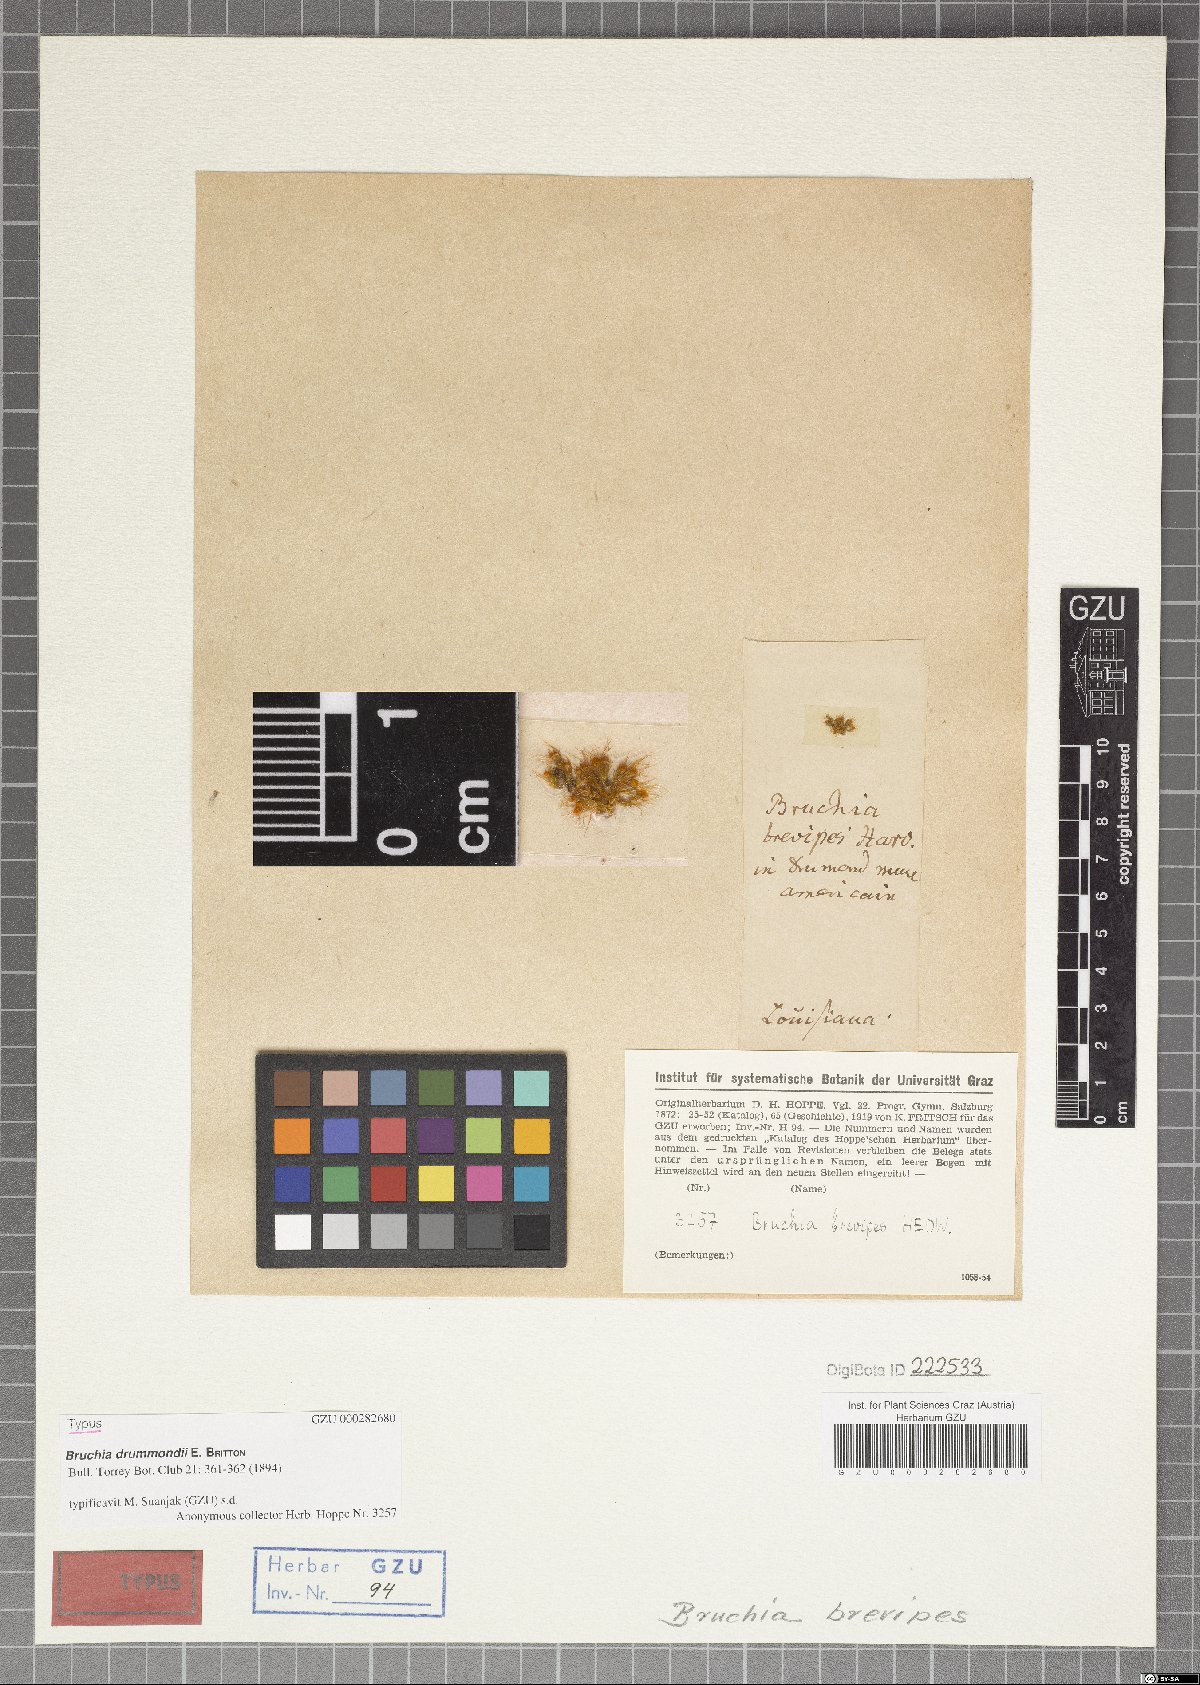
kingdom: Plantae
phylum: Bryophyta
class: Bryopsida
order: Dicranales
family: Bruchiaceae
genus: Bruchia
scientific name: Bruchia drummondii
